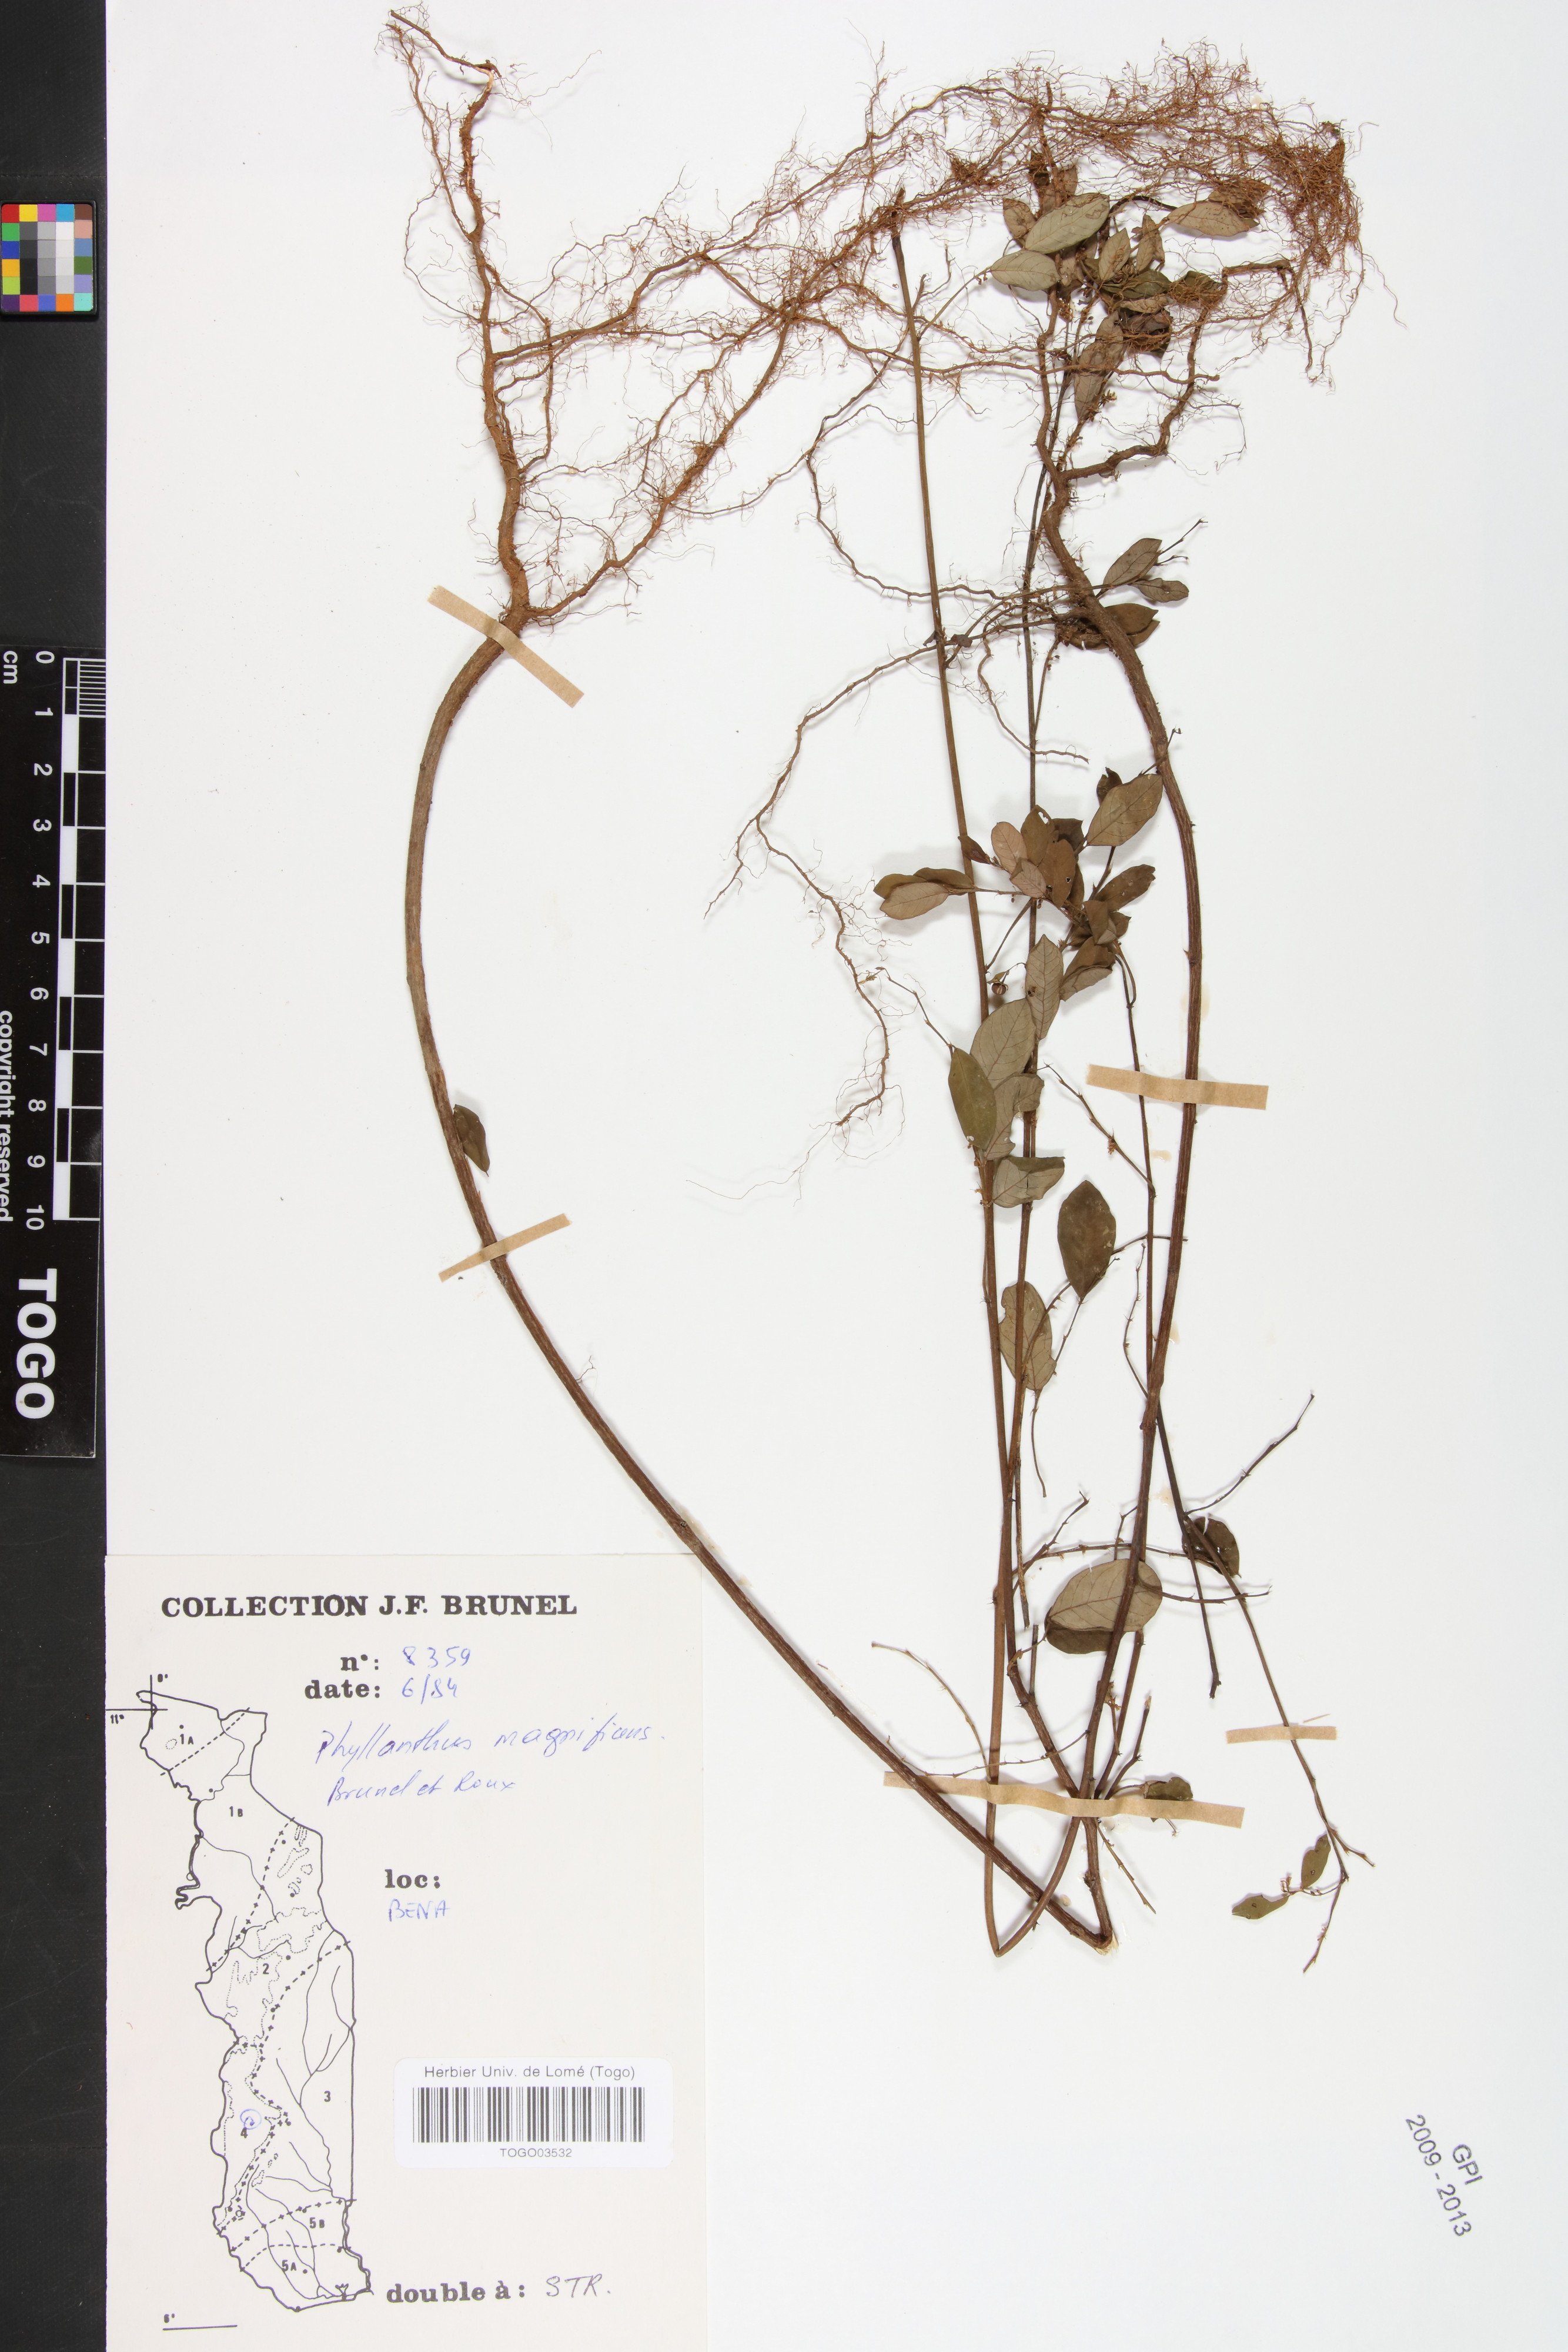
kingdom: Plantae
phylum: Tracheophyta
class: Magnoliopsida
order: Malpighiales
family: Phyllanthaceae
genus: Phyllanthus
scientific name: Phyllanthus magnificens
